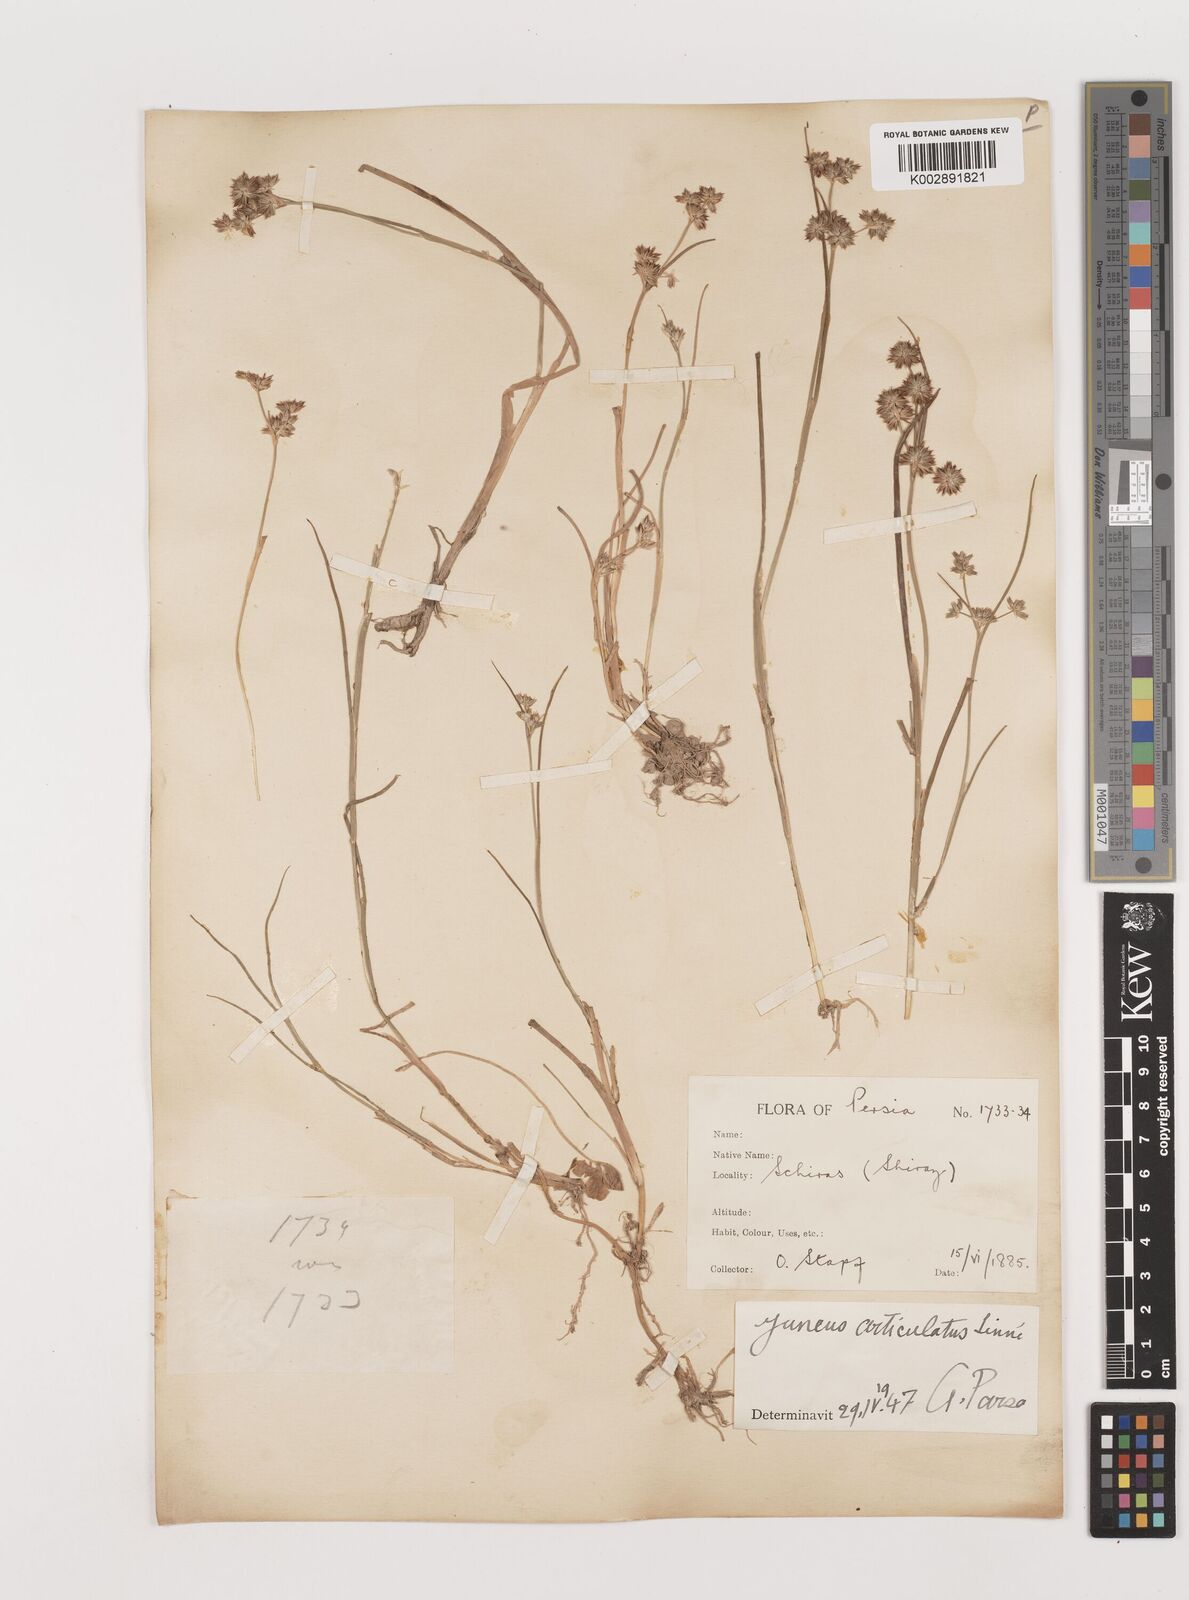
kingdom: Plantae
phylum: Tracheophyta
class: Liliopsida
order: Poales
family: Juncaceae
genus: Juncus
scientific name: Juncus articulatus
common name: Jointed rush
